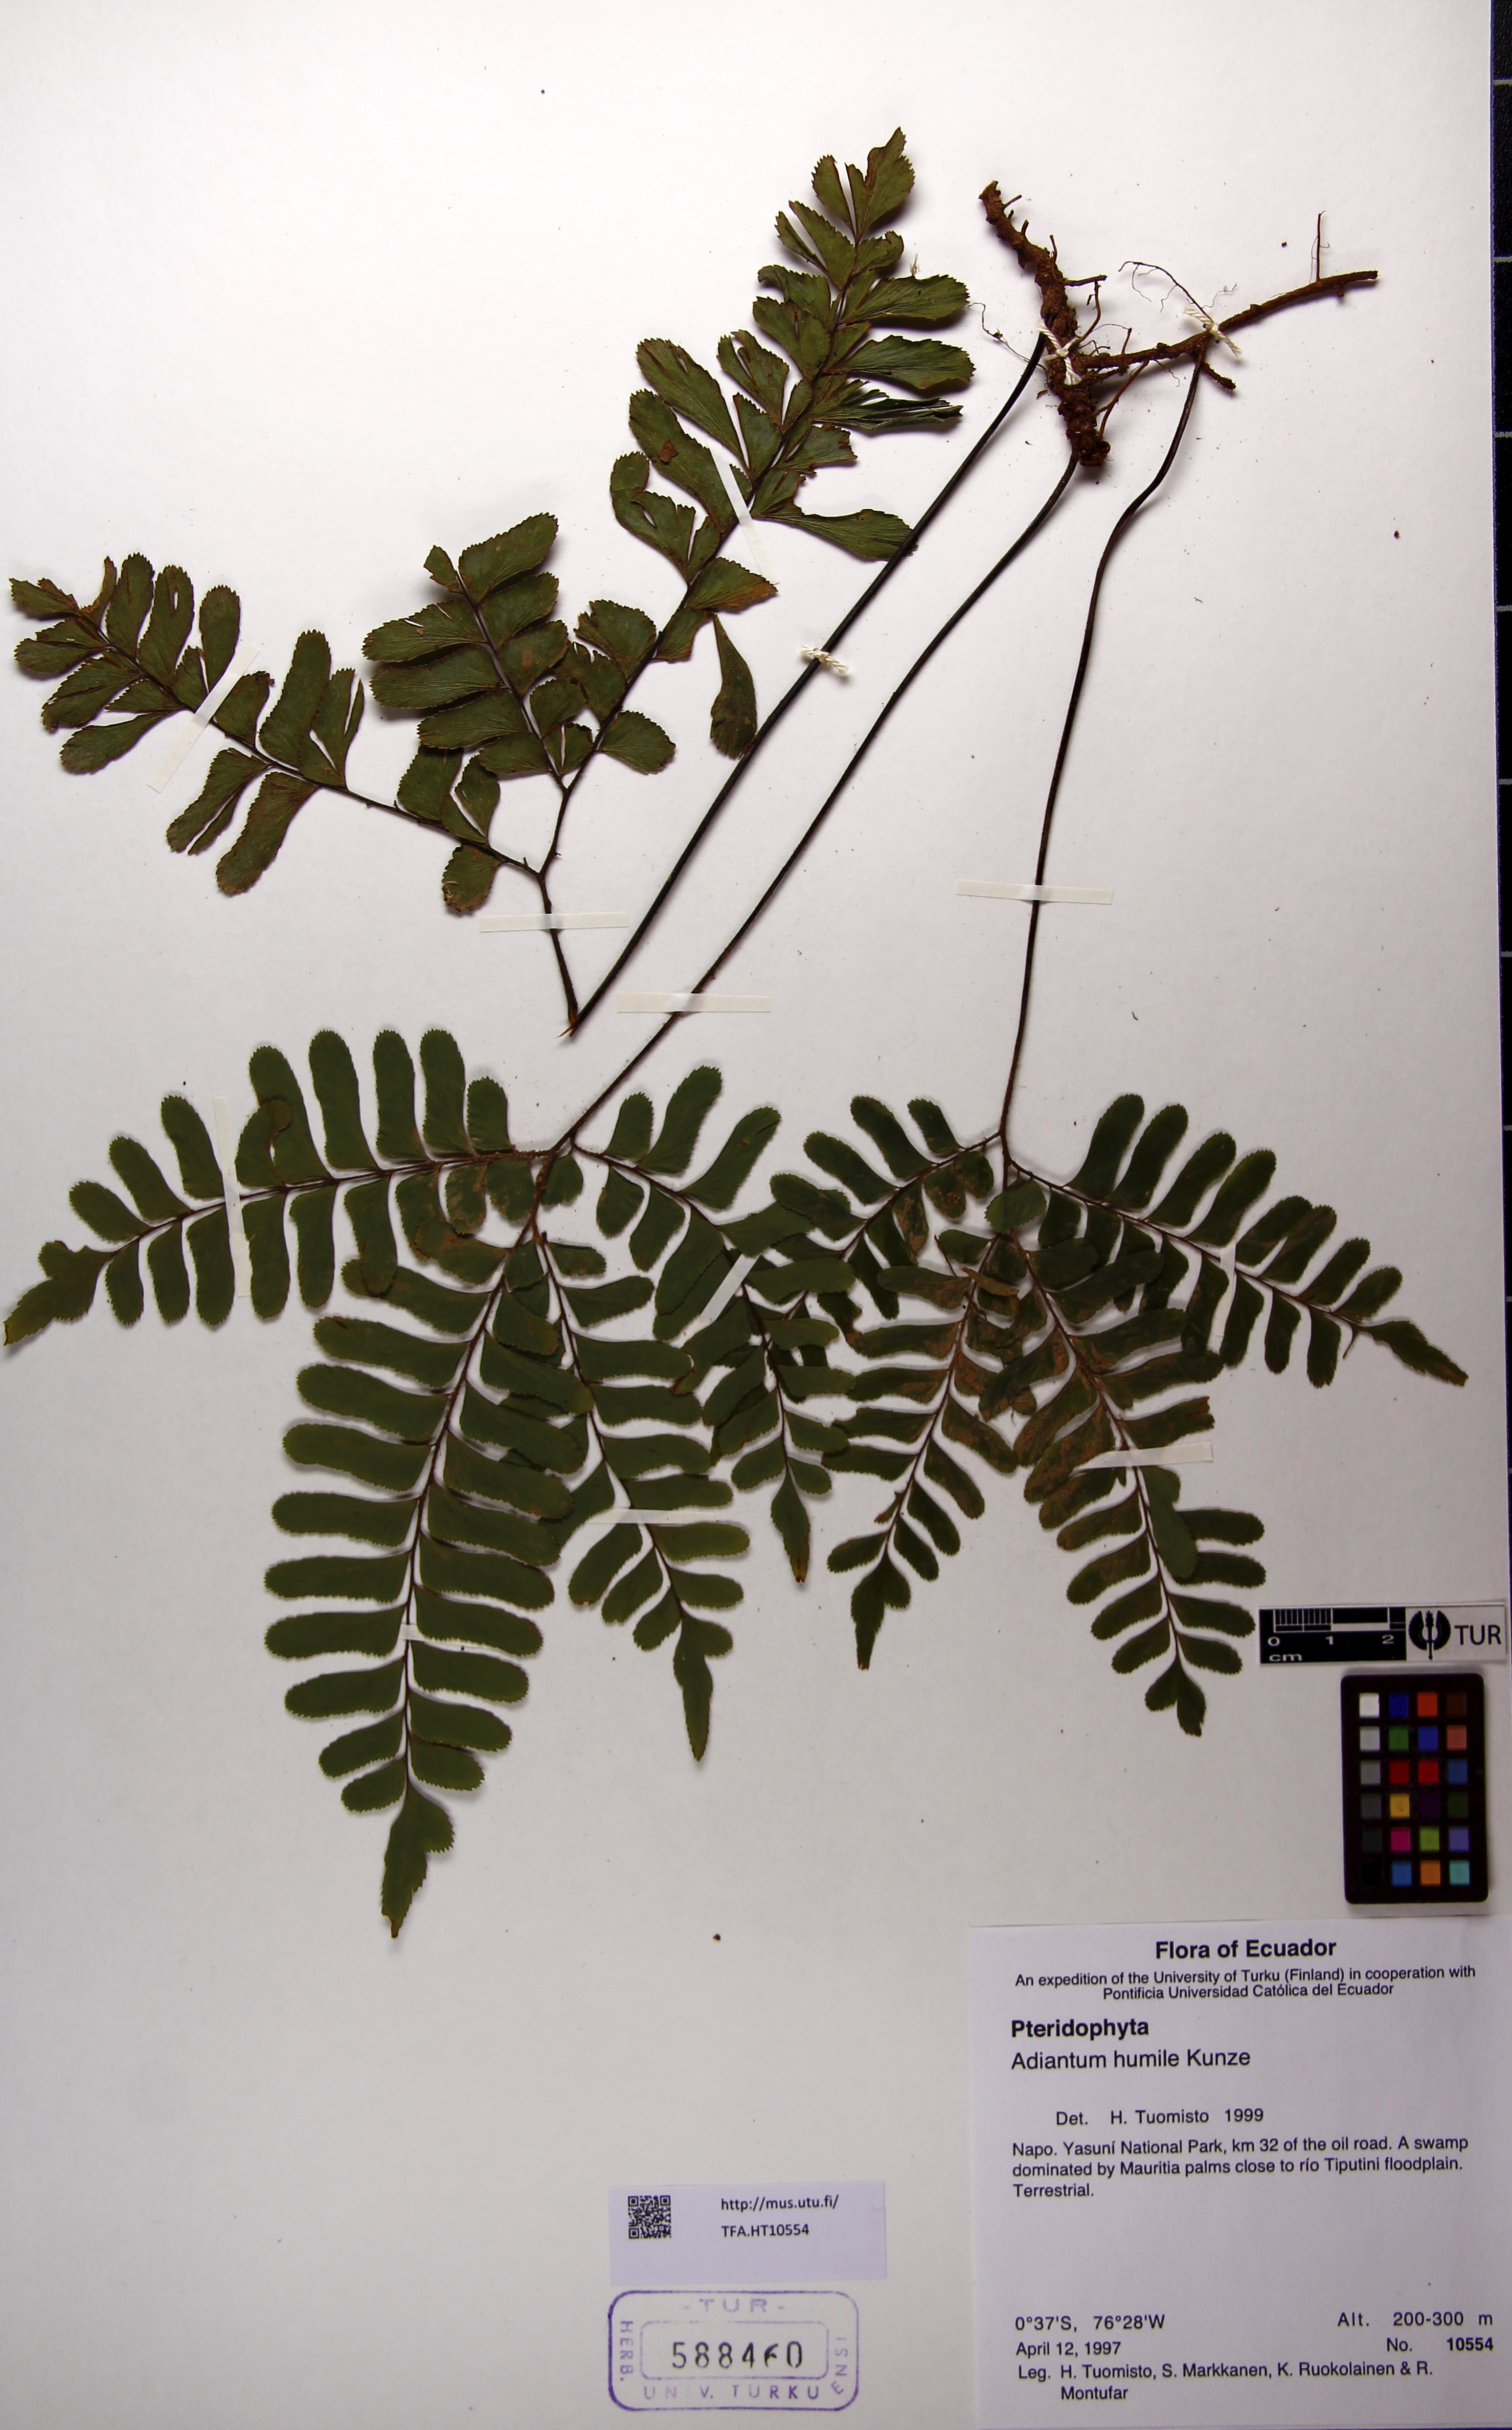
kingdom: Plantae
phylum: Tracheophyta
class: Polypodiopsida
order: Polypodiales
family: Pteridaceae
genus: Adiantum
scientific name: Adiantum humile
